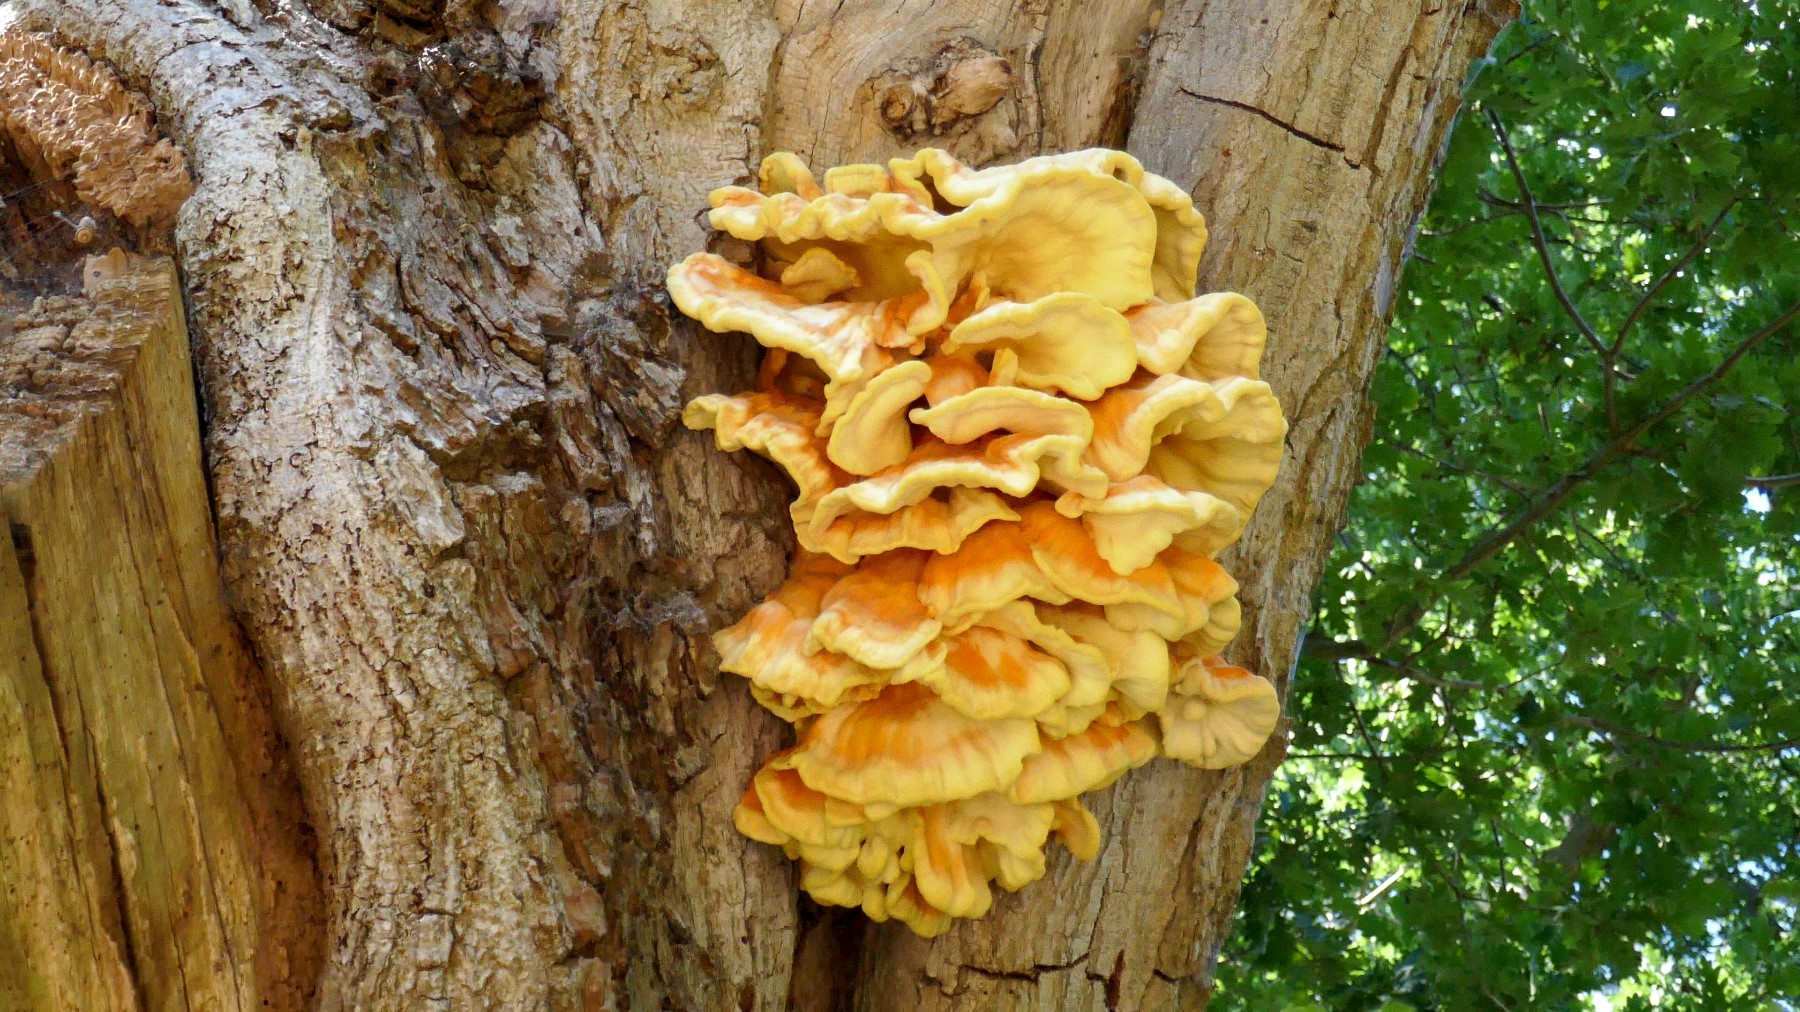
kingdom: Fungi
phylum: Basidiomycota
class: Agaricomycetes
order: Polyporales
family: Laetiporaceae
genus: Laetiporus
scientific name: Laetiporus sulphureus
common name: svovlporesvamp
